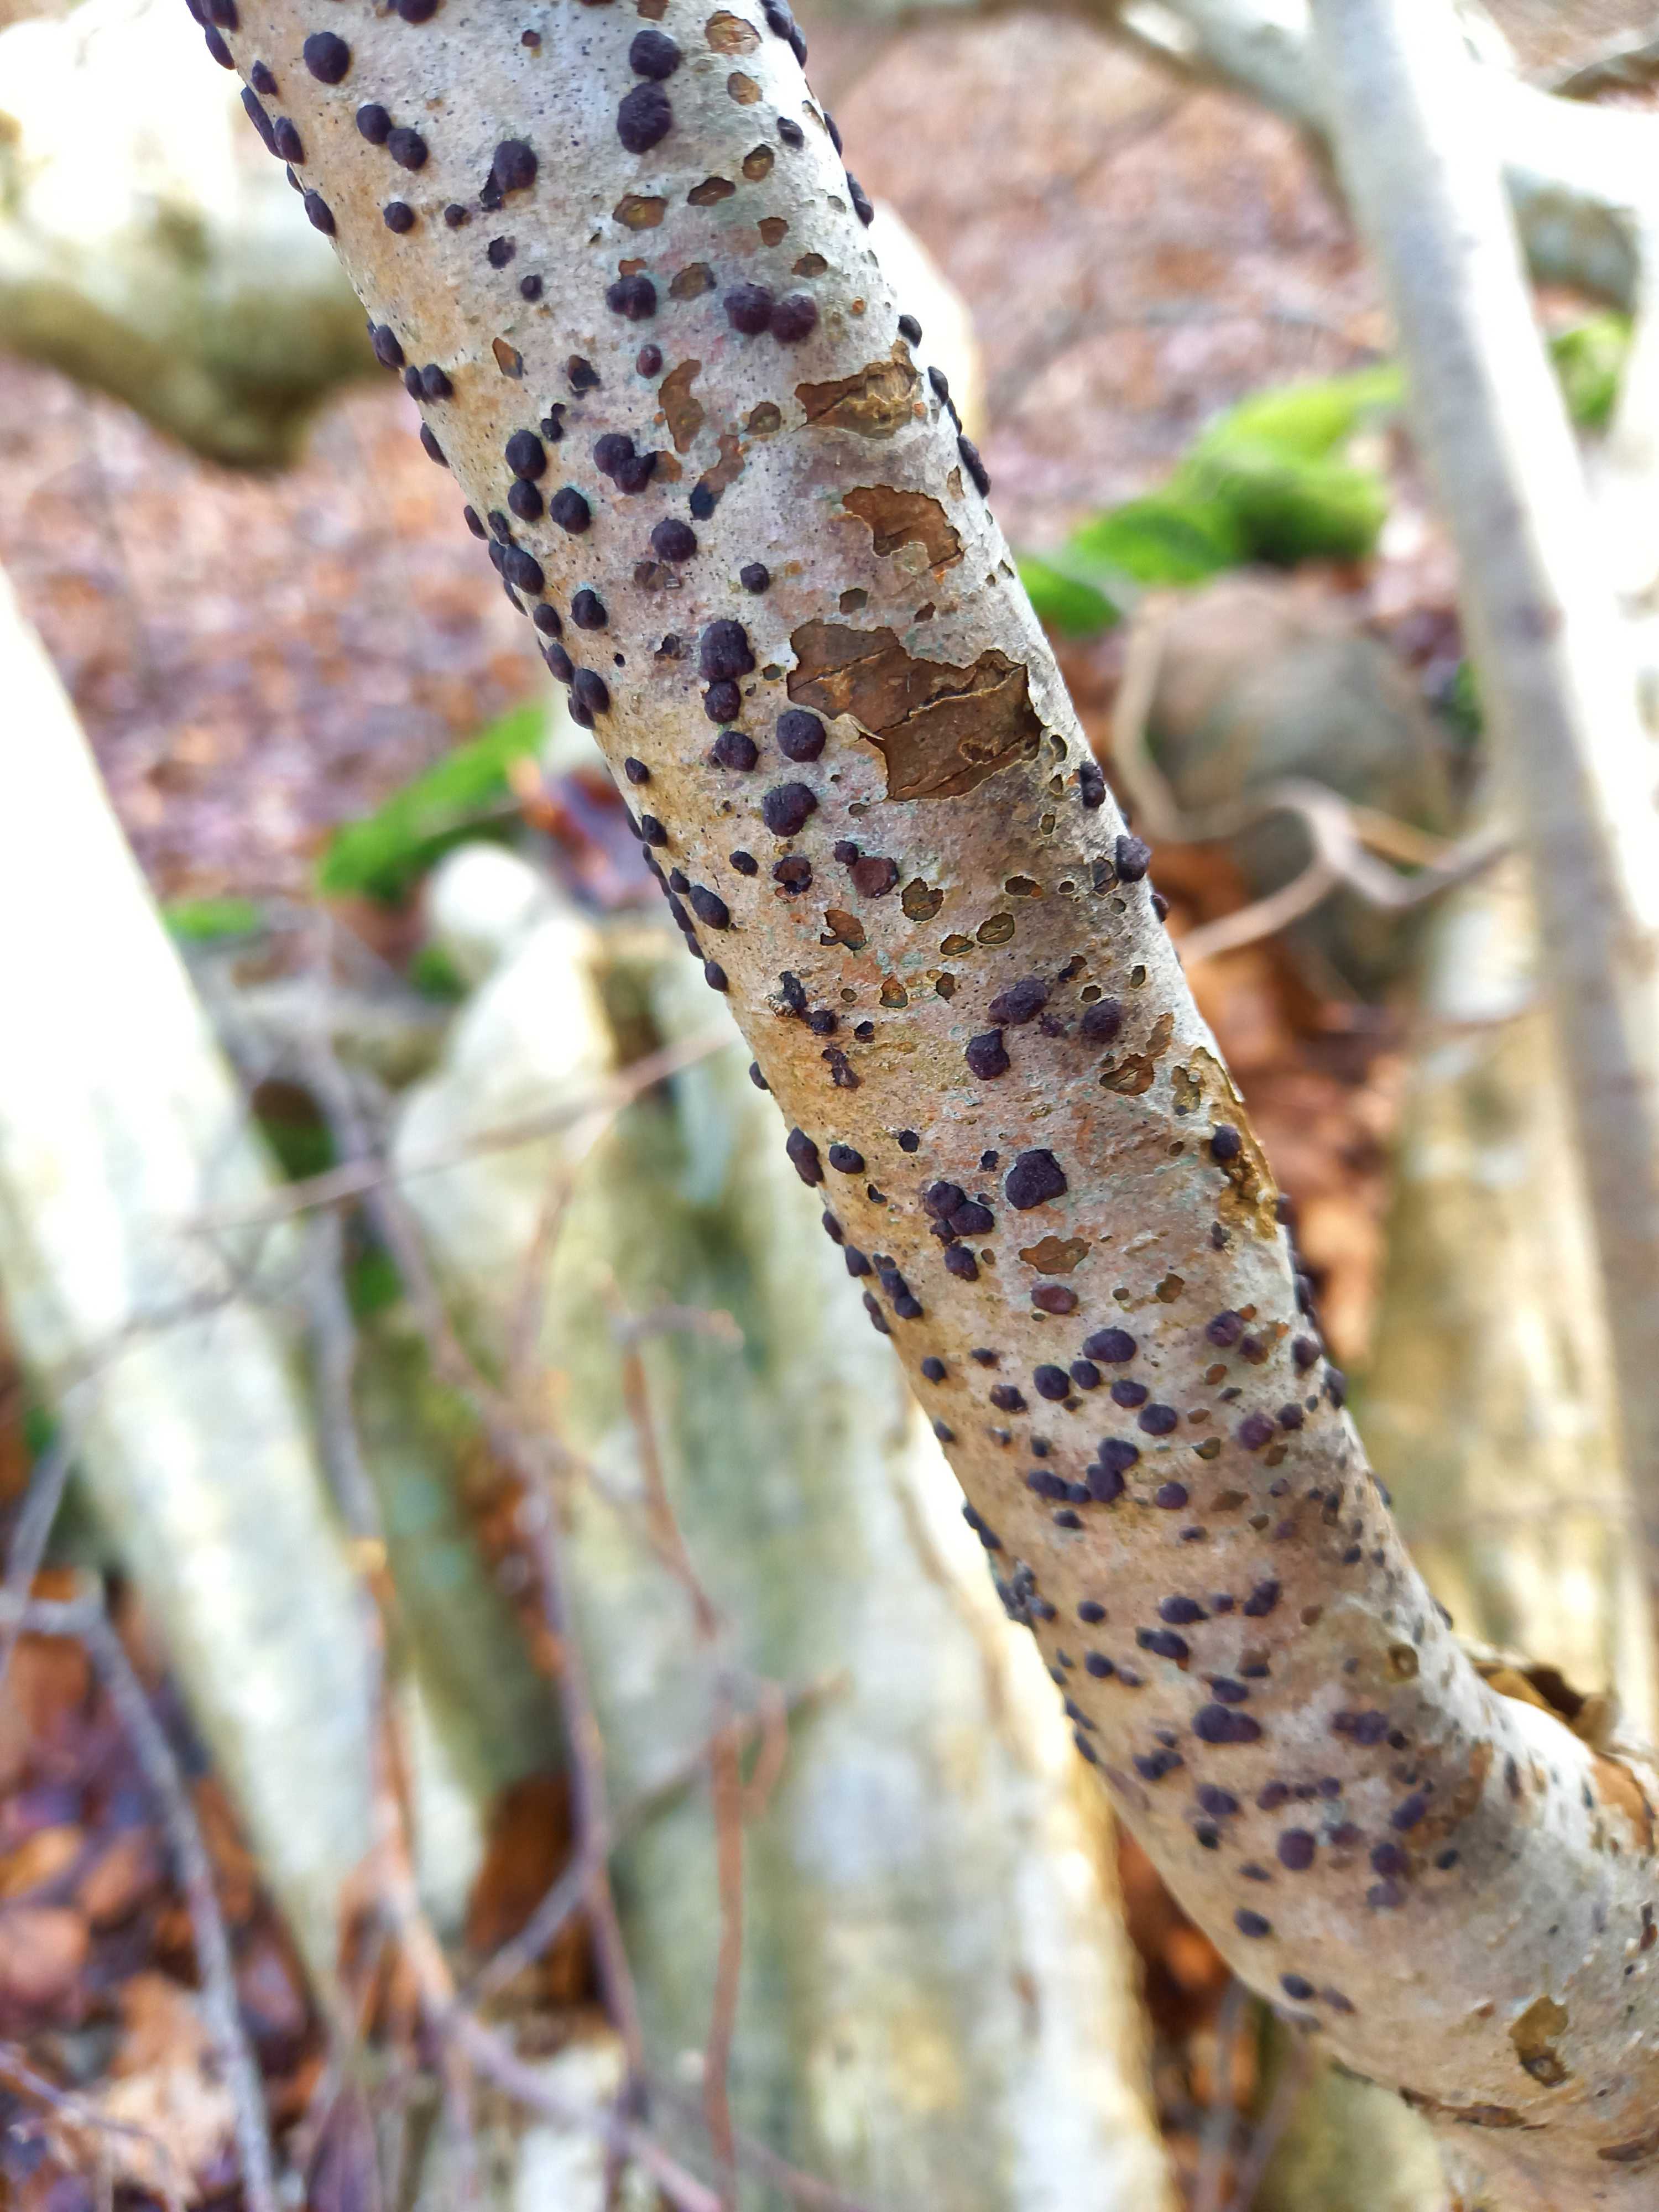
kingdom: Fungi
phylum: Ascomycota
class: Sordariomycetes
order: Xylariales
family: Hypoxylaceae
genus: Hypoxylon
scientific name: Hypoxylon fuscum
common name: kegleformet kulbær
